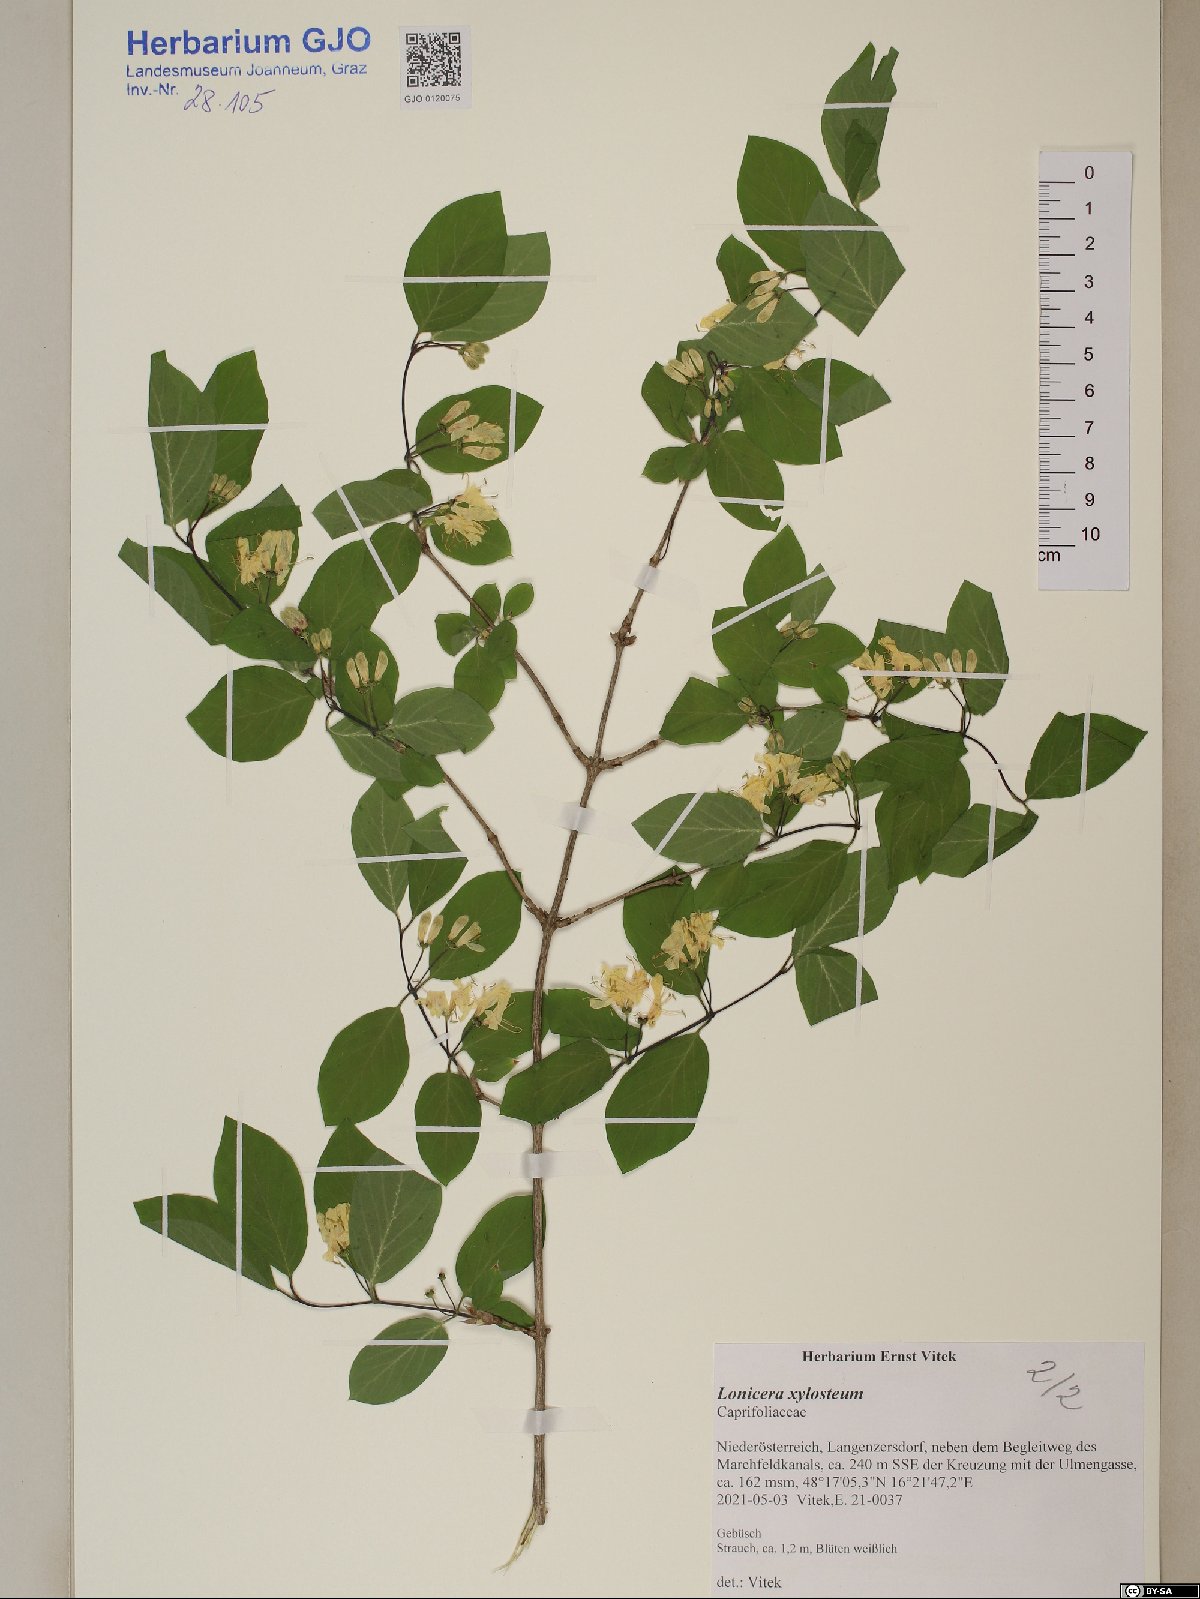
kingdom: Plantae
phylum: Tracheophyta
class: Magnoliopsida
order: Dipsacales
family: Caprifoliaceae
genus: Lonicera
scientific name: Lonicera xylosteum
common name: Fly honeysuckle
